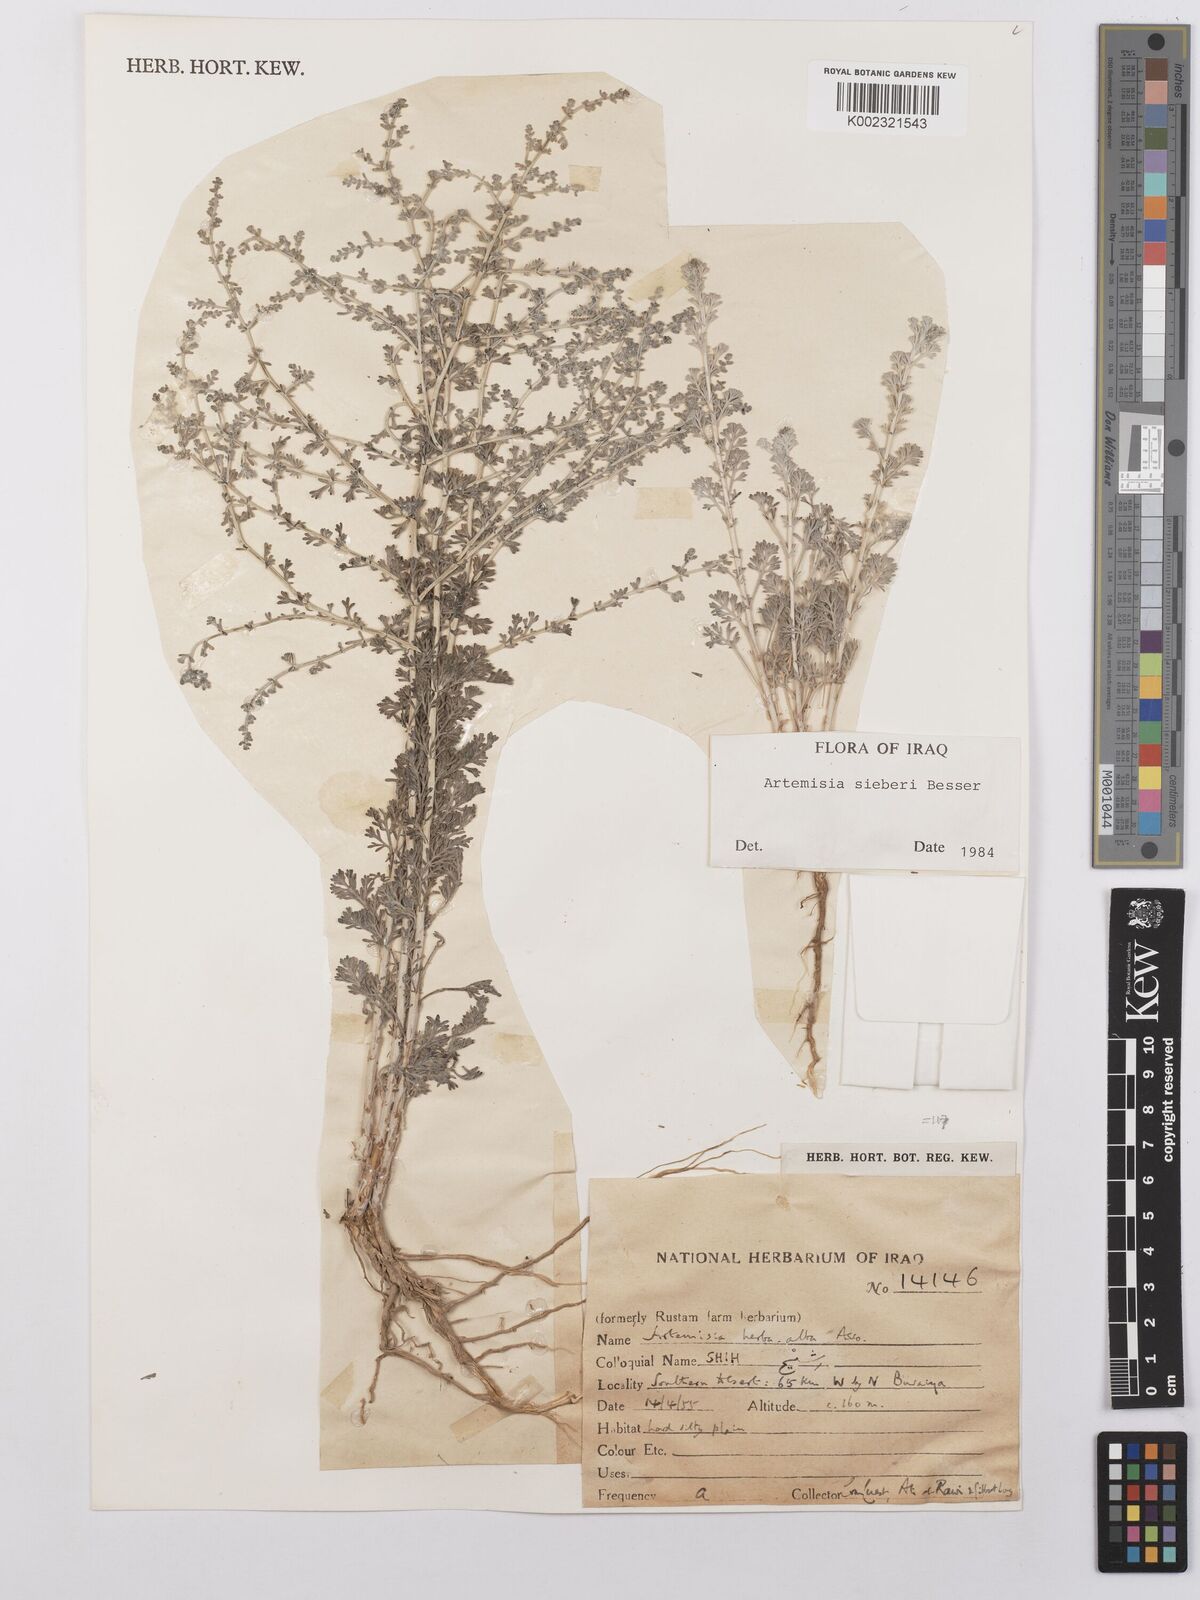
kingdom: Plantae
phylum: Tracheophyta
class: Magnoliopsida
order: Asterales
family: Asteraceae
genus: Artemisia
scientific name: Artemisia sieberi
